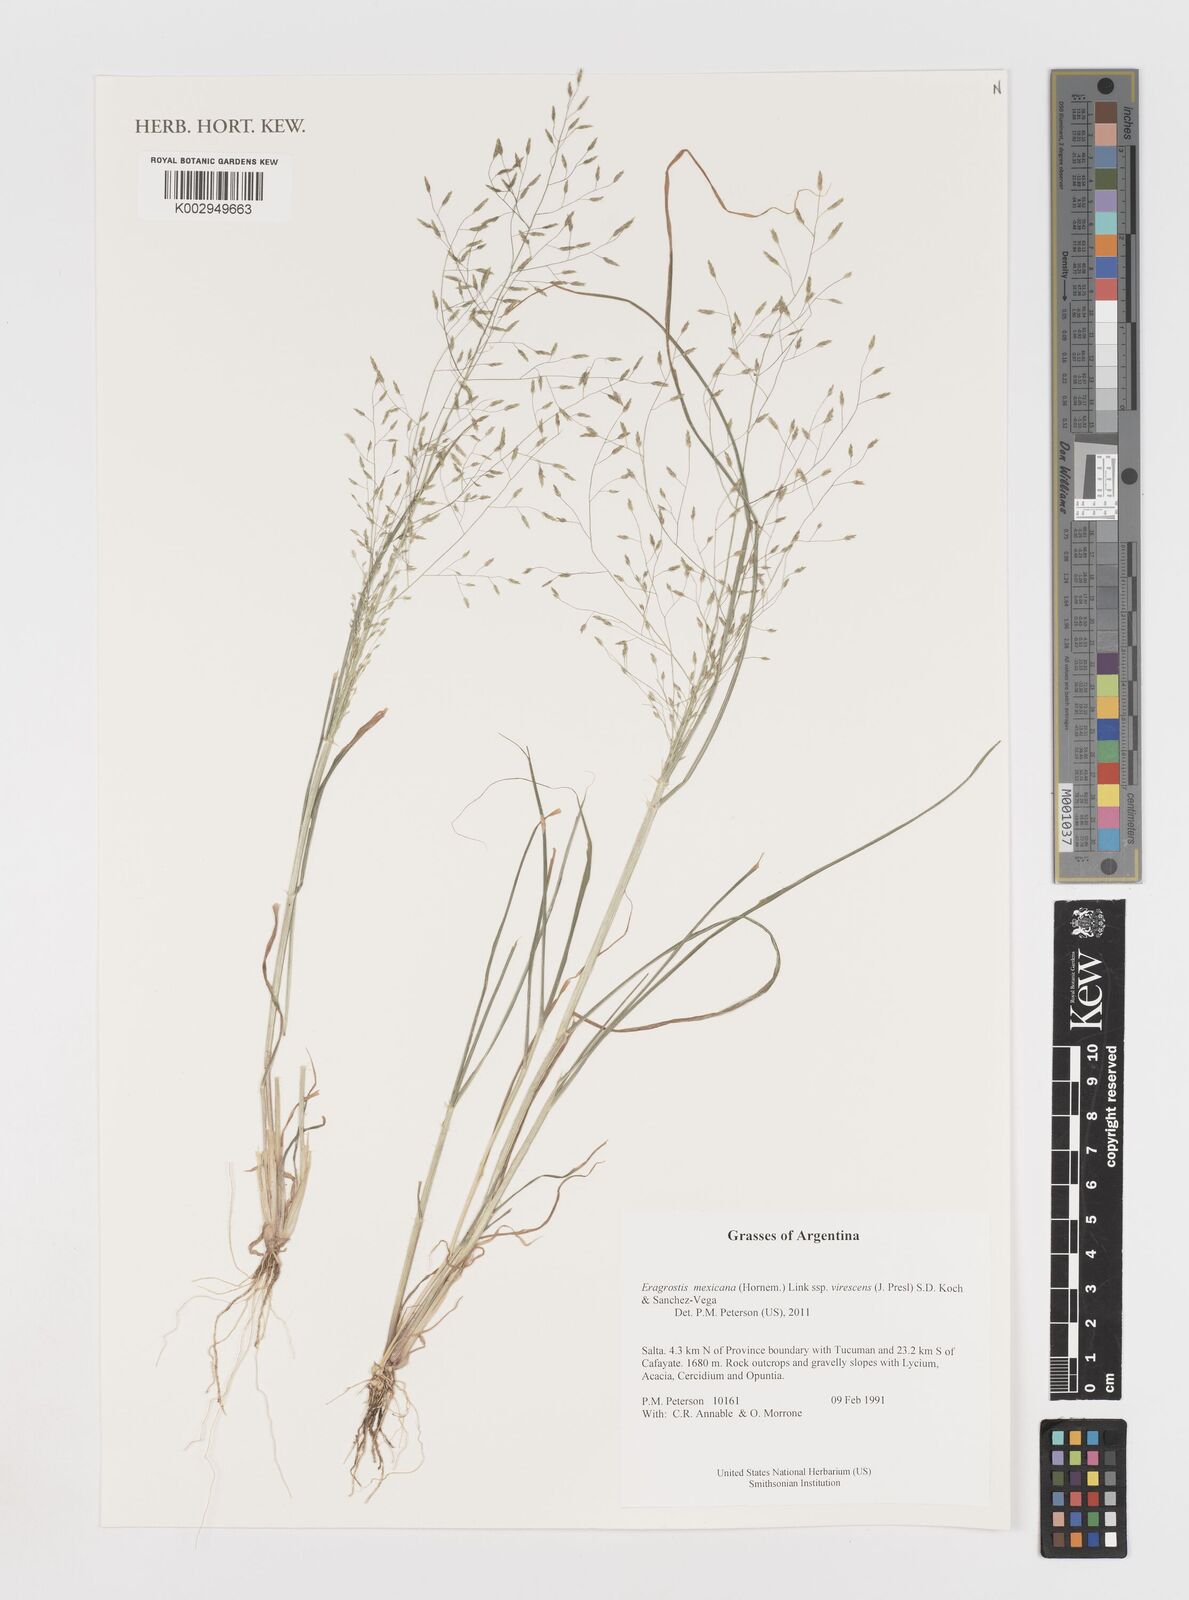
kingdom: Plantae
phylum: Tracheophyta
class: Liliopsida
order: Poales
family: Poaceae
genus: Eragrostis
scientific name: Eragrostis mexicana
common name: Mexican love grass
